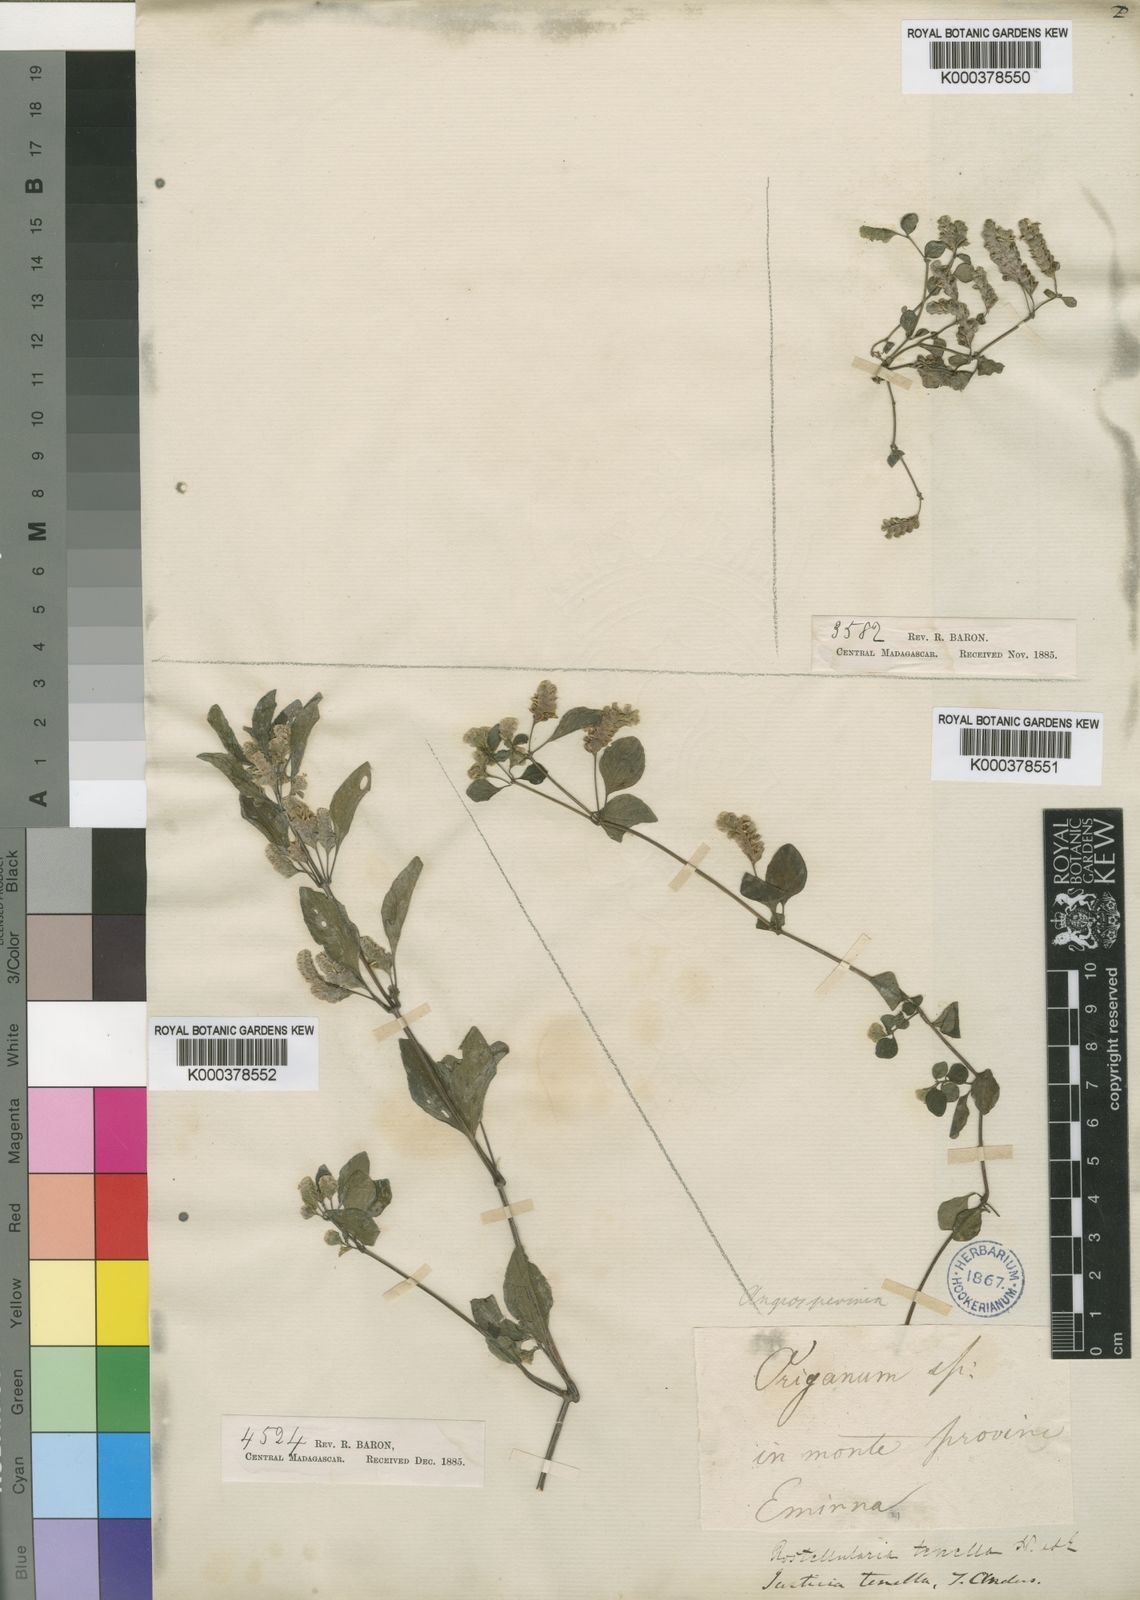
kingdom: Plantae
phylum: Tracheophyta
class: Magnoliopsida
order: Lamiales
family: Acanthaceae
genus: Anisostachya
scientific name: Anisostachya tenella
